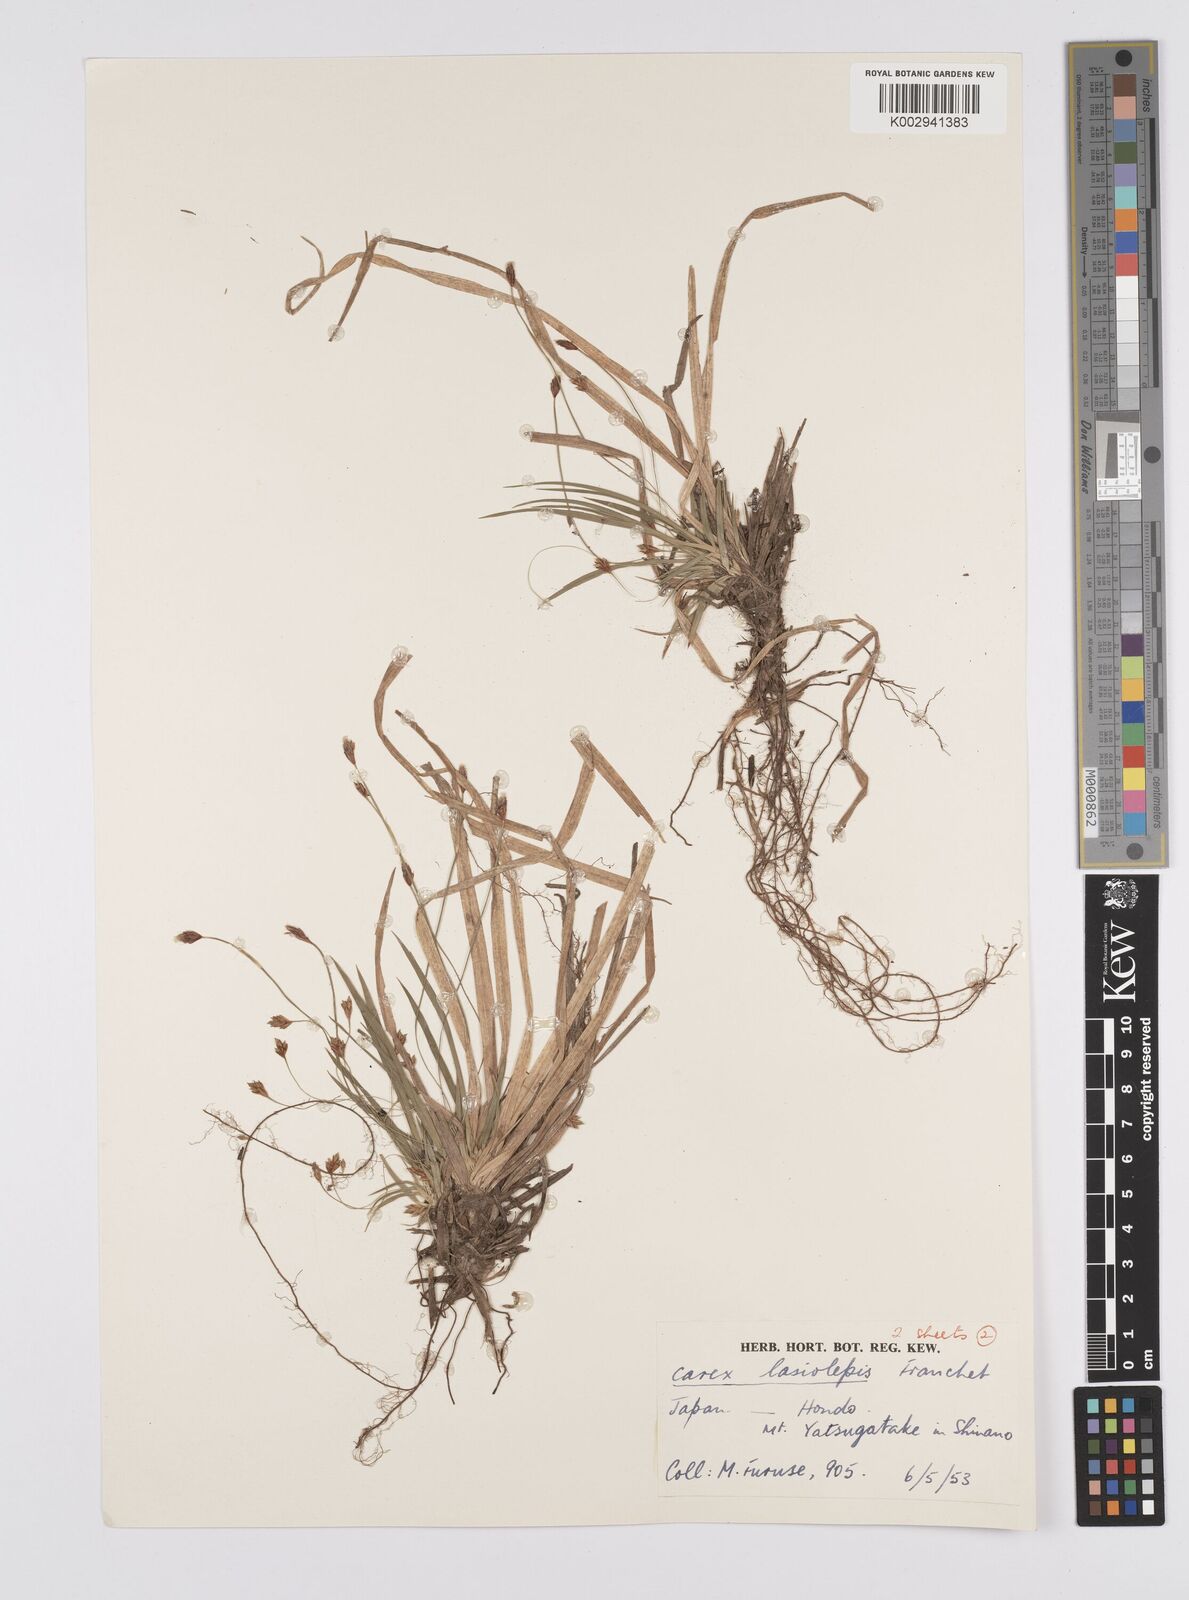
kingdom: Plantae
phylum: Tracheophyta
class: Liliopsida
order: Poales
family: Cyperaceae
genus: Carex
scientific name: Carex lasiolepis
